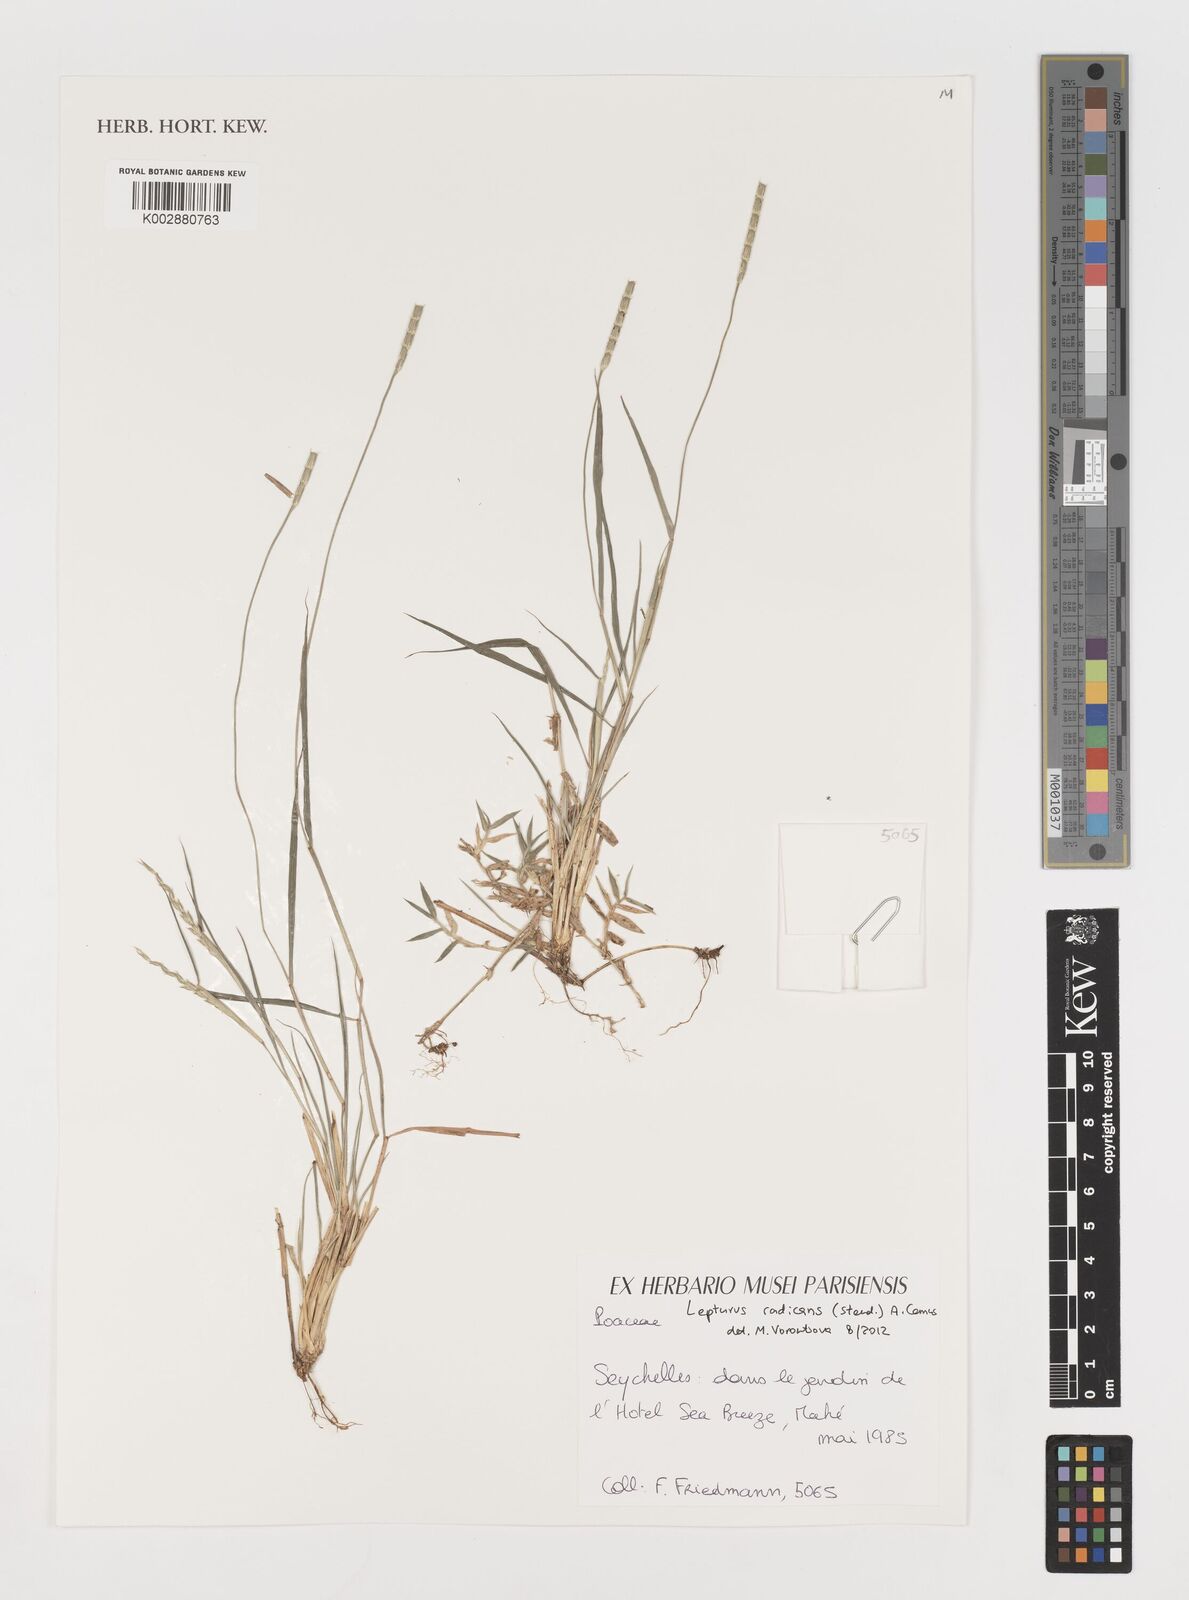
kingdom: Plantae
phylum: Tracheophyta
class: Liliopsida
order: Poales
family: Poaceae
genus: Lepturus
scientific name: Lepturus radicans
